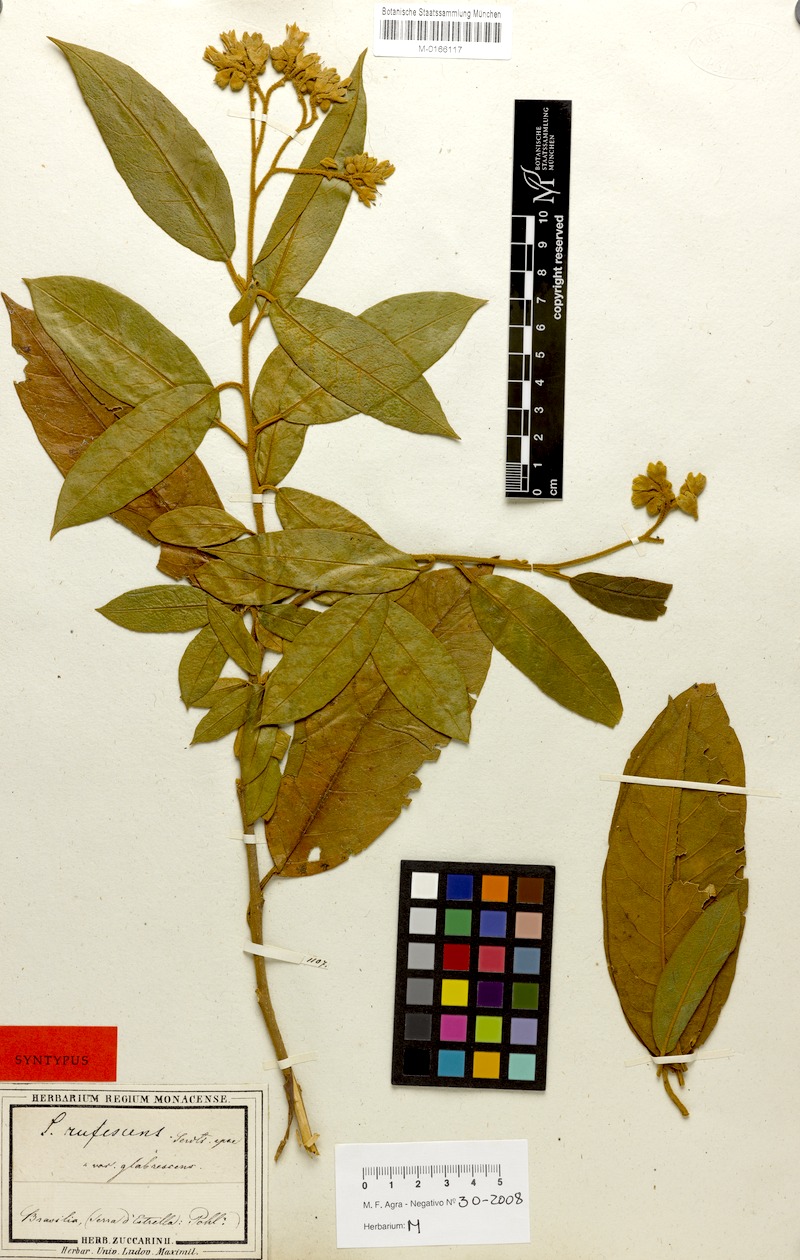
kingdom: Plantae
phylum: Tracheophyta
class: Magnoliopsida
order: Solanales
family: Solanaceae
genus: Solanum
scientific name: Solanum rufescens
